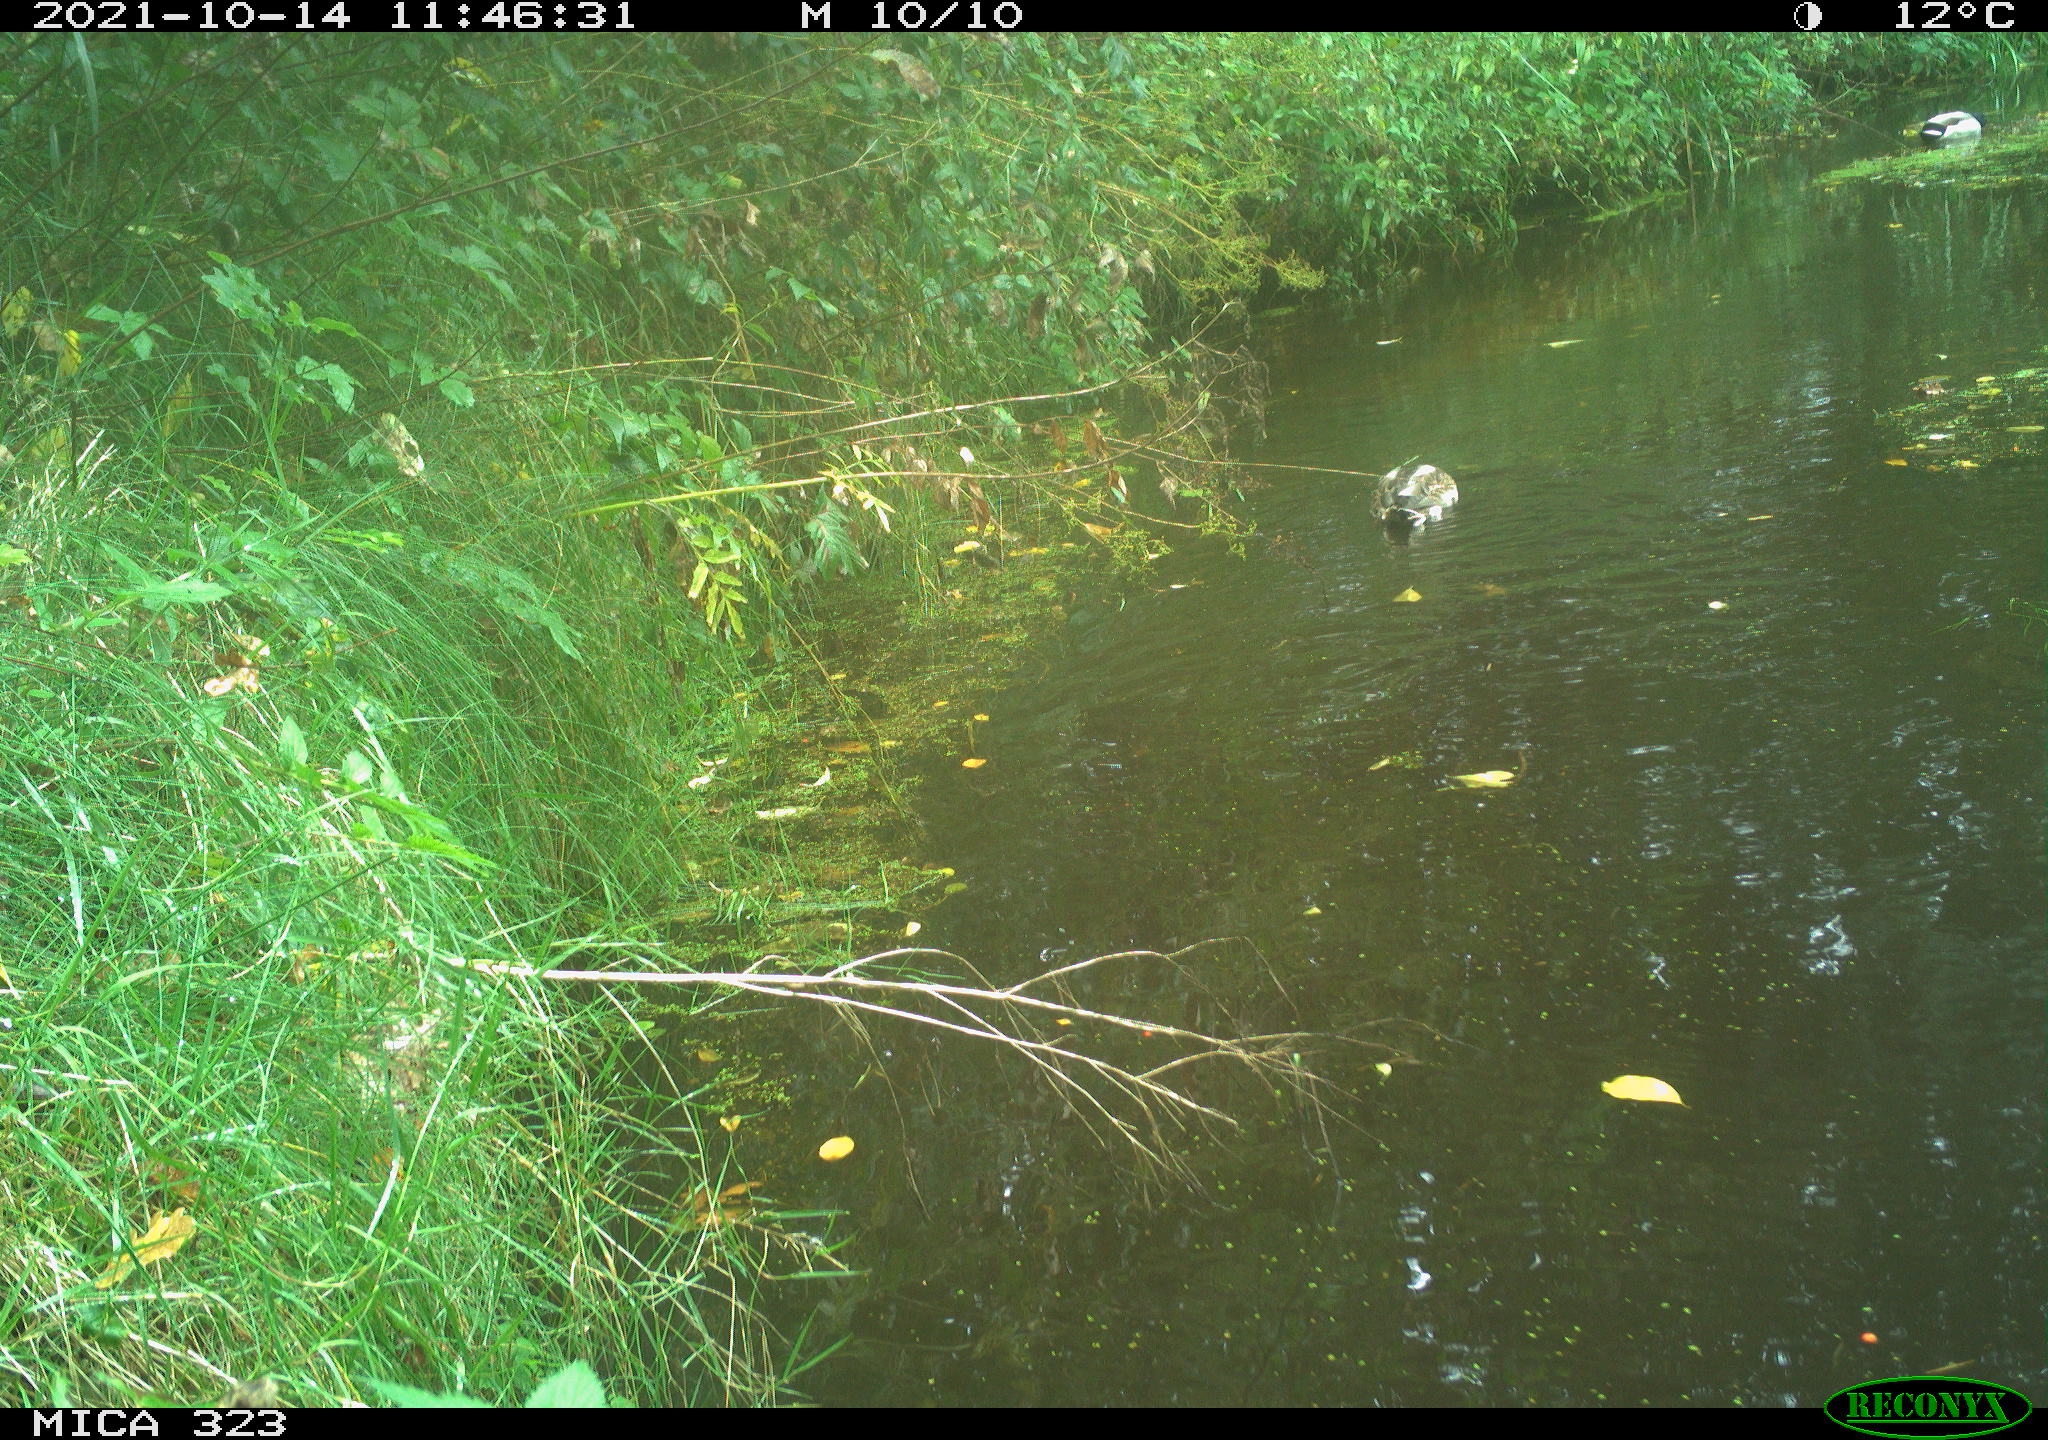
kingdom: Animalia
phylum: Chordata
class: Aves
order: Anseriformes
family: Anatidae
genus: Anas
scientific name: Anas platyrhynchos
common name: Mallard
